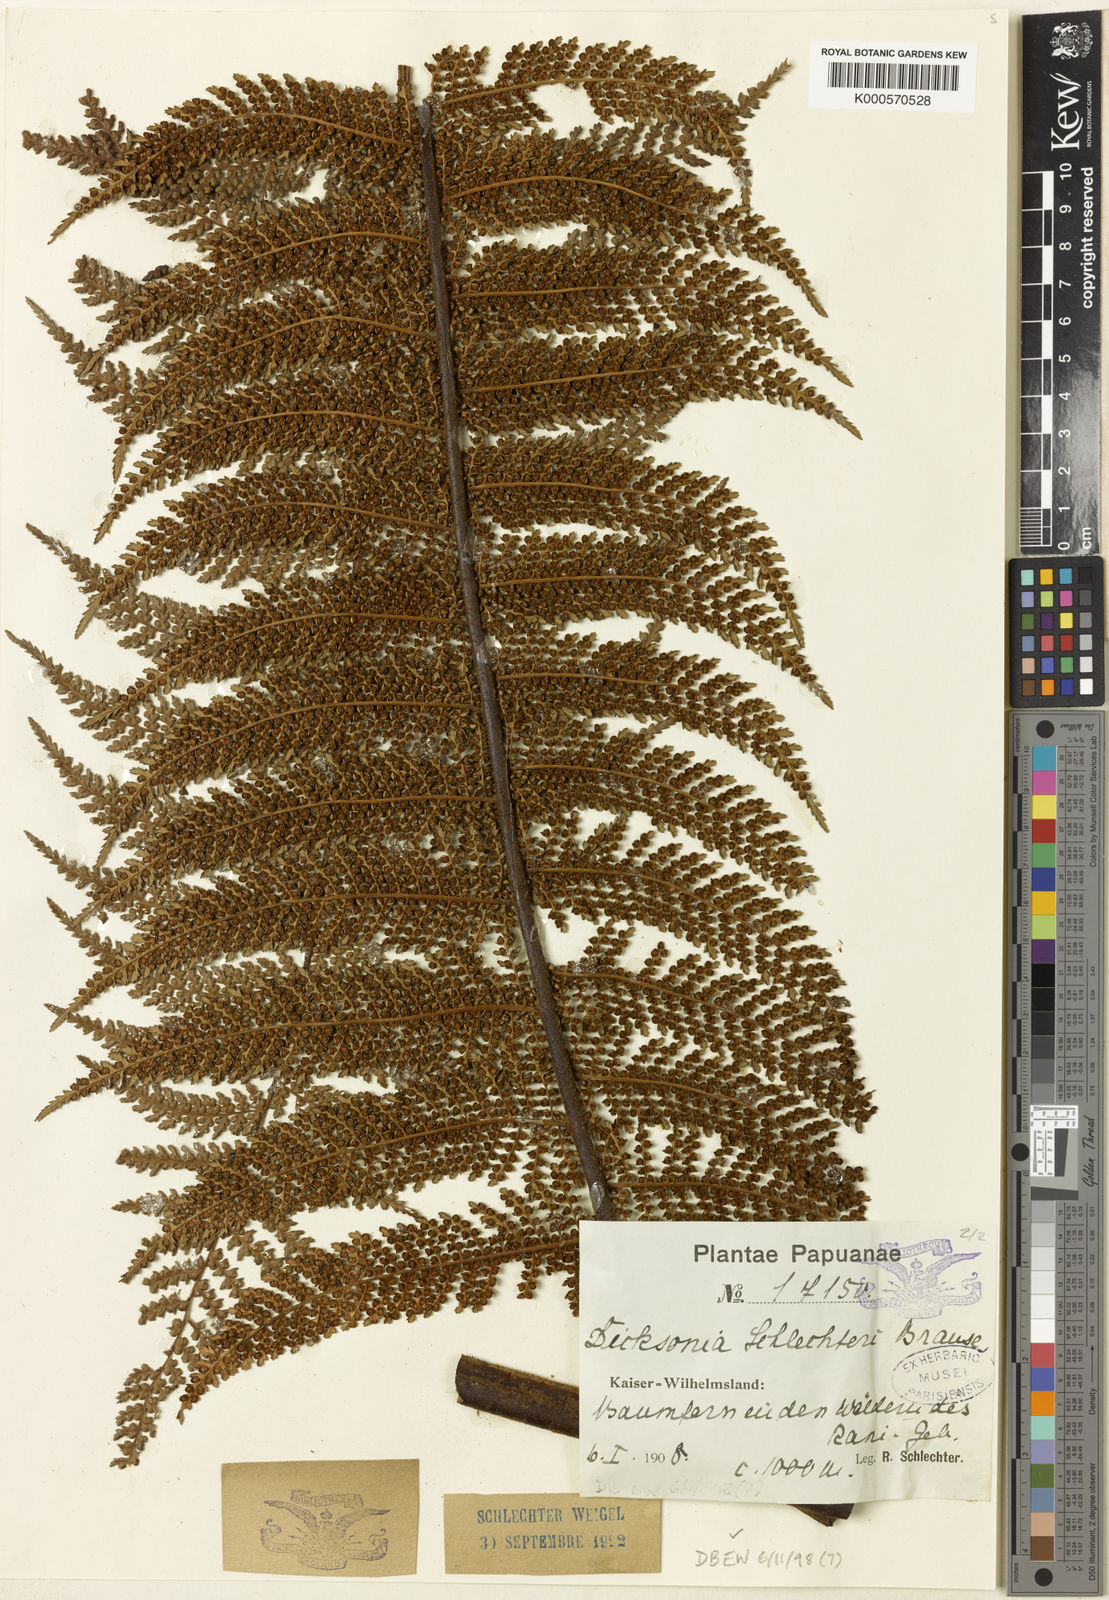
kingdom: Plantae
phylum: Tracheophyta
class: Polypodiopsida
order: Cyatheales
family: Dicksoniaceae
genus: Dicksonia
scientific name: Dicksonia grandis
